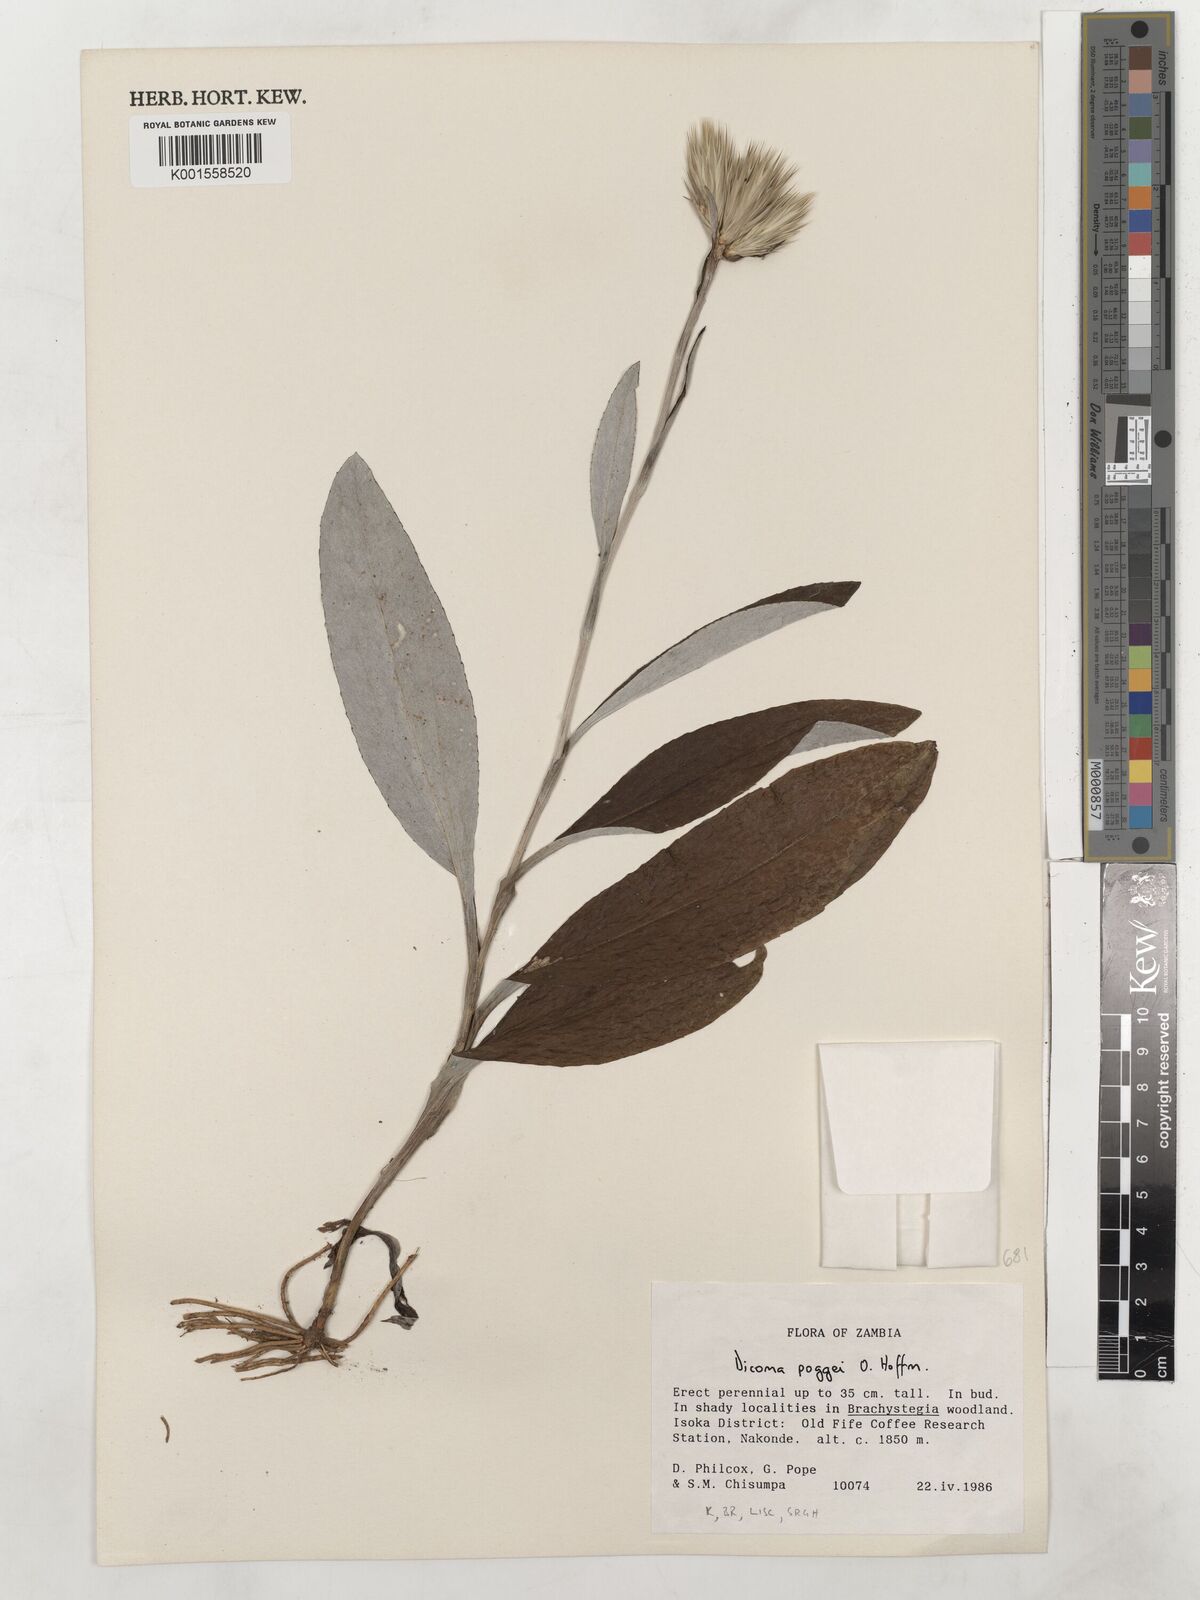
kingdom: Plantae
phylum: Tracheophyta
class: Magnoliopsida
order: Asterales
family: Asteraceae
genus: Macledium
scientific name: Macledium poggei
